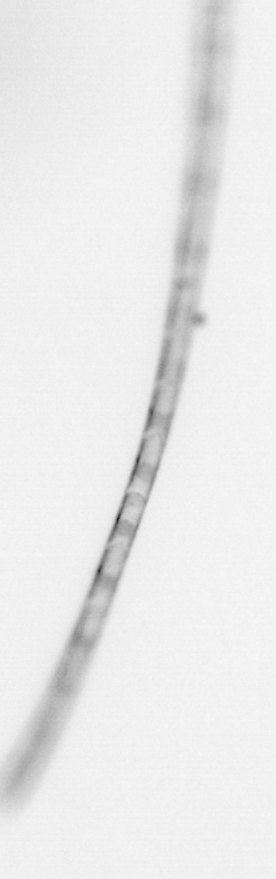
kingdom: Chromista
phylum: Ochrophyta
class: Bacillariophyceae
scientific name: Bacillariophyceae
